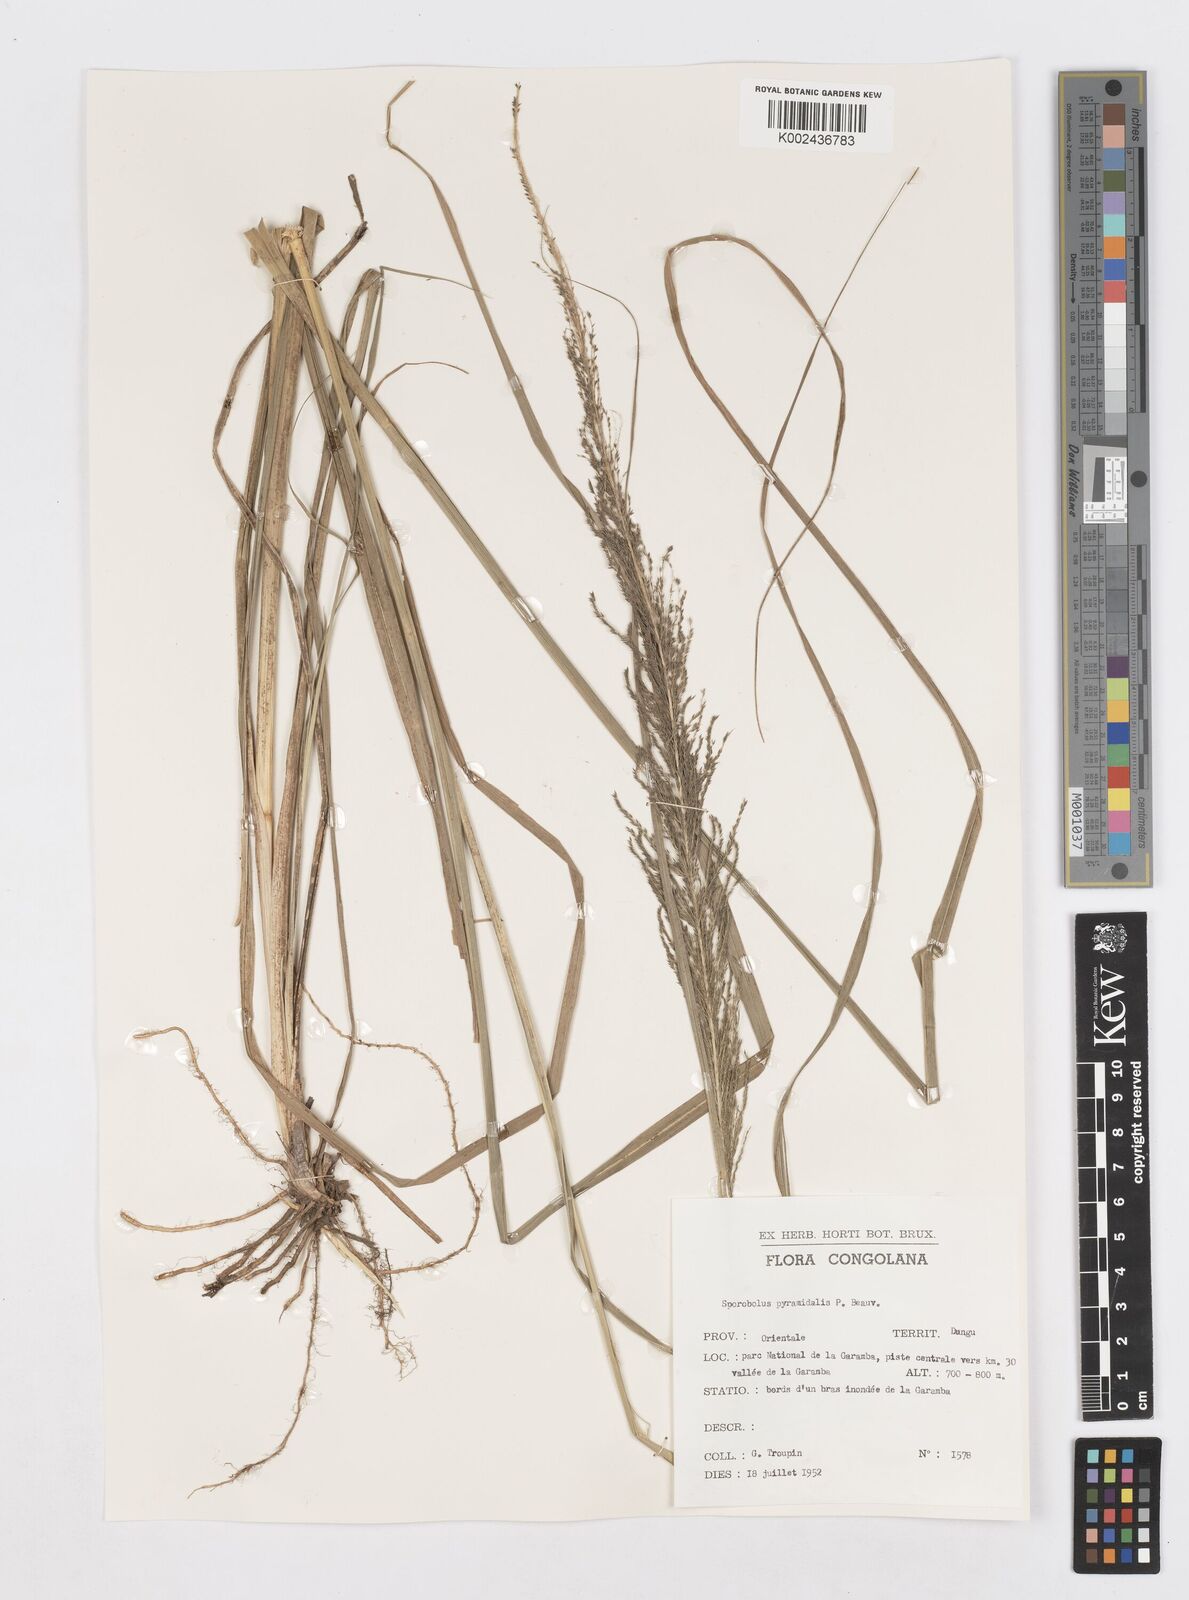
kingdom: Plantae
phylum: Tracheophyta
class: Liliopsida
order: Poales
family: Poaceae
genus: Sporobolus
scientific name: Sporobolus pyramidalis
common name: West indian dropseed
